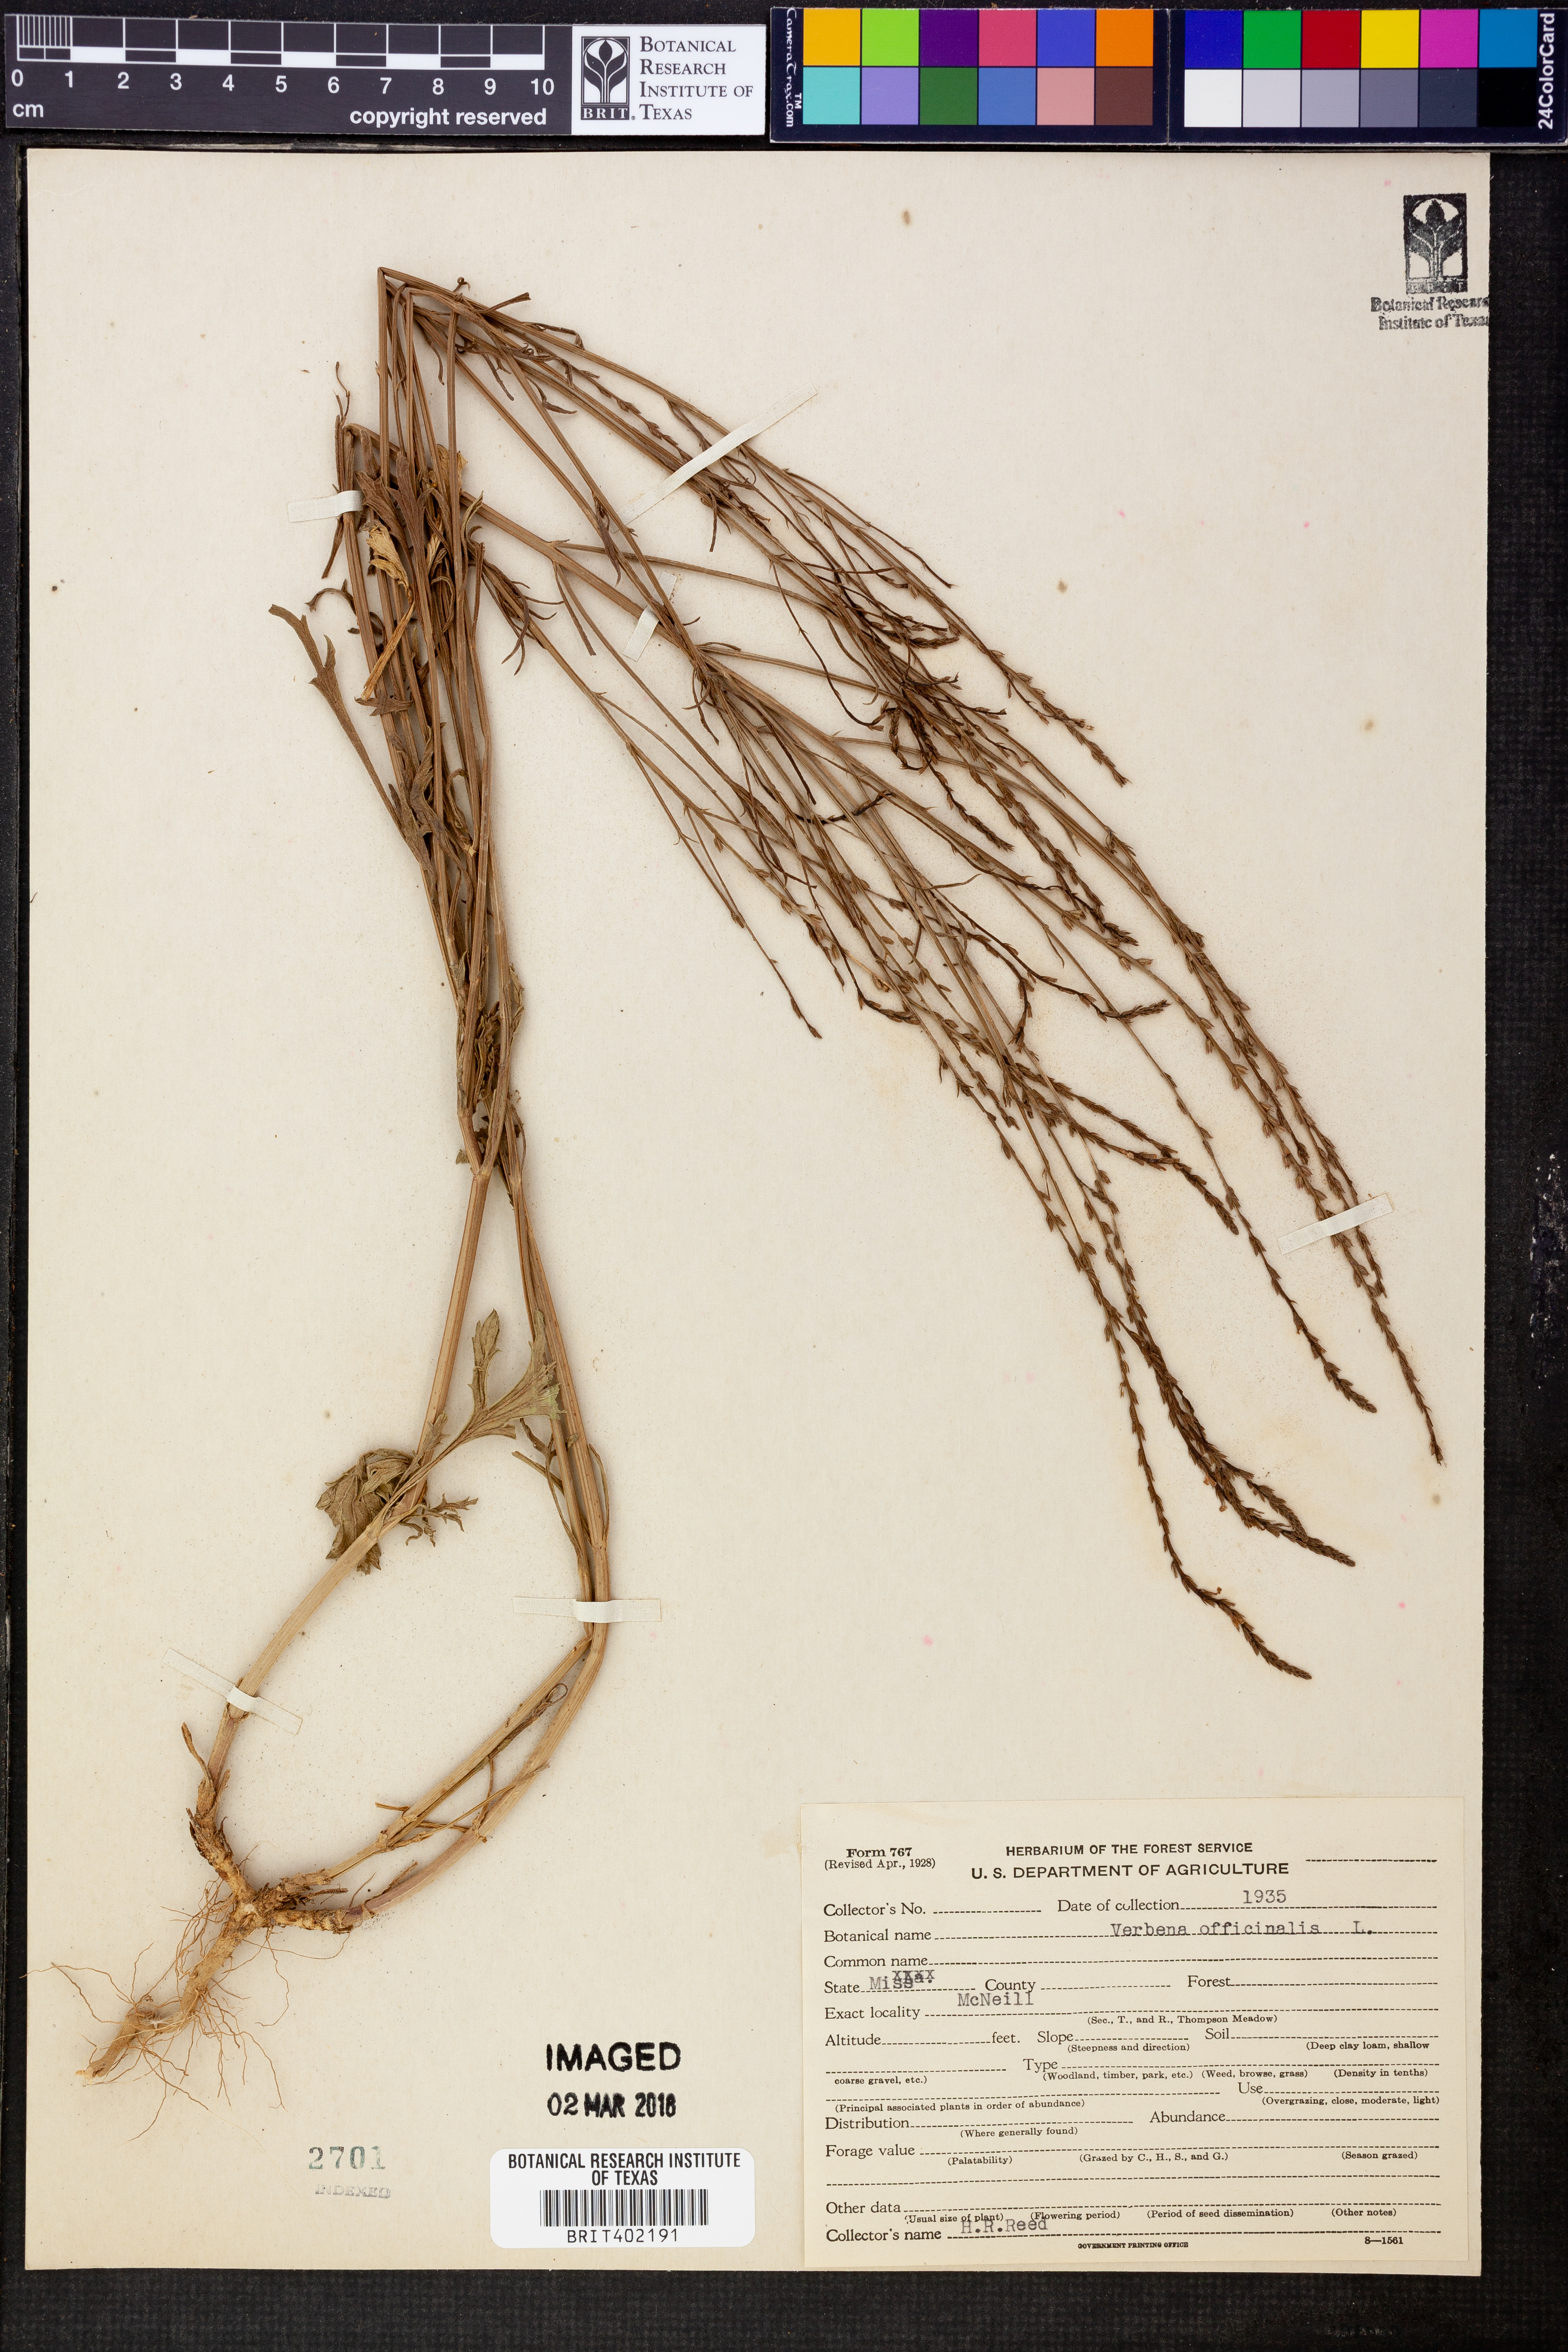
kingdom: Plantae
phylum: Tracheophyta
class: Magnoliopsida
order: Lamiales
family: Verbenaceae
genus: Verbena
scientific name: Verbena officinalis
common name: Vervain
